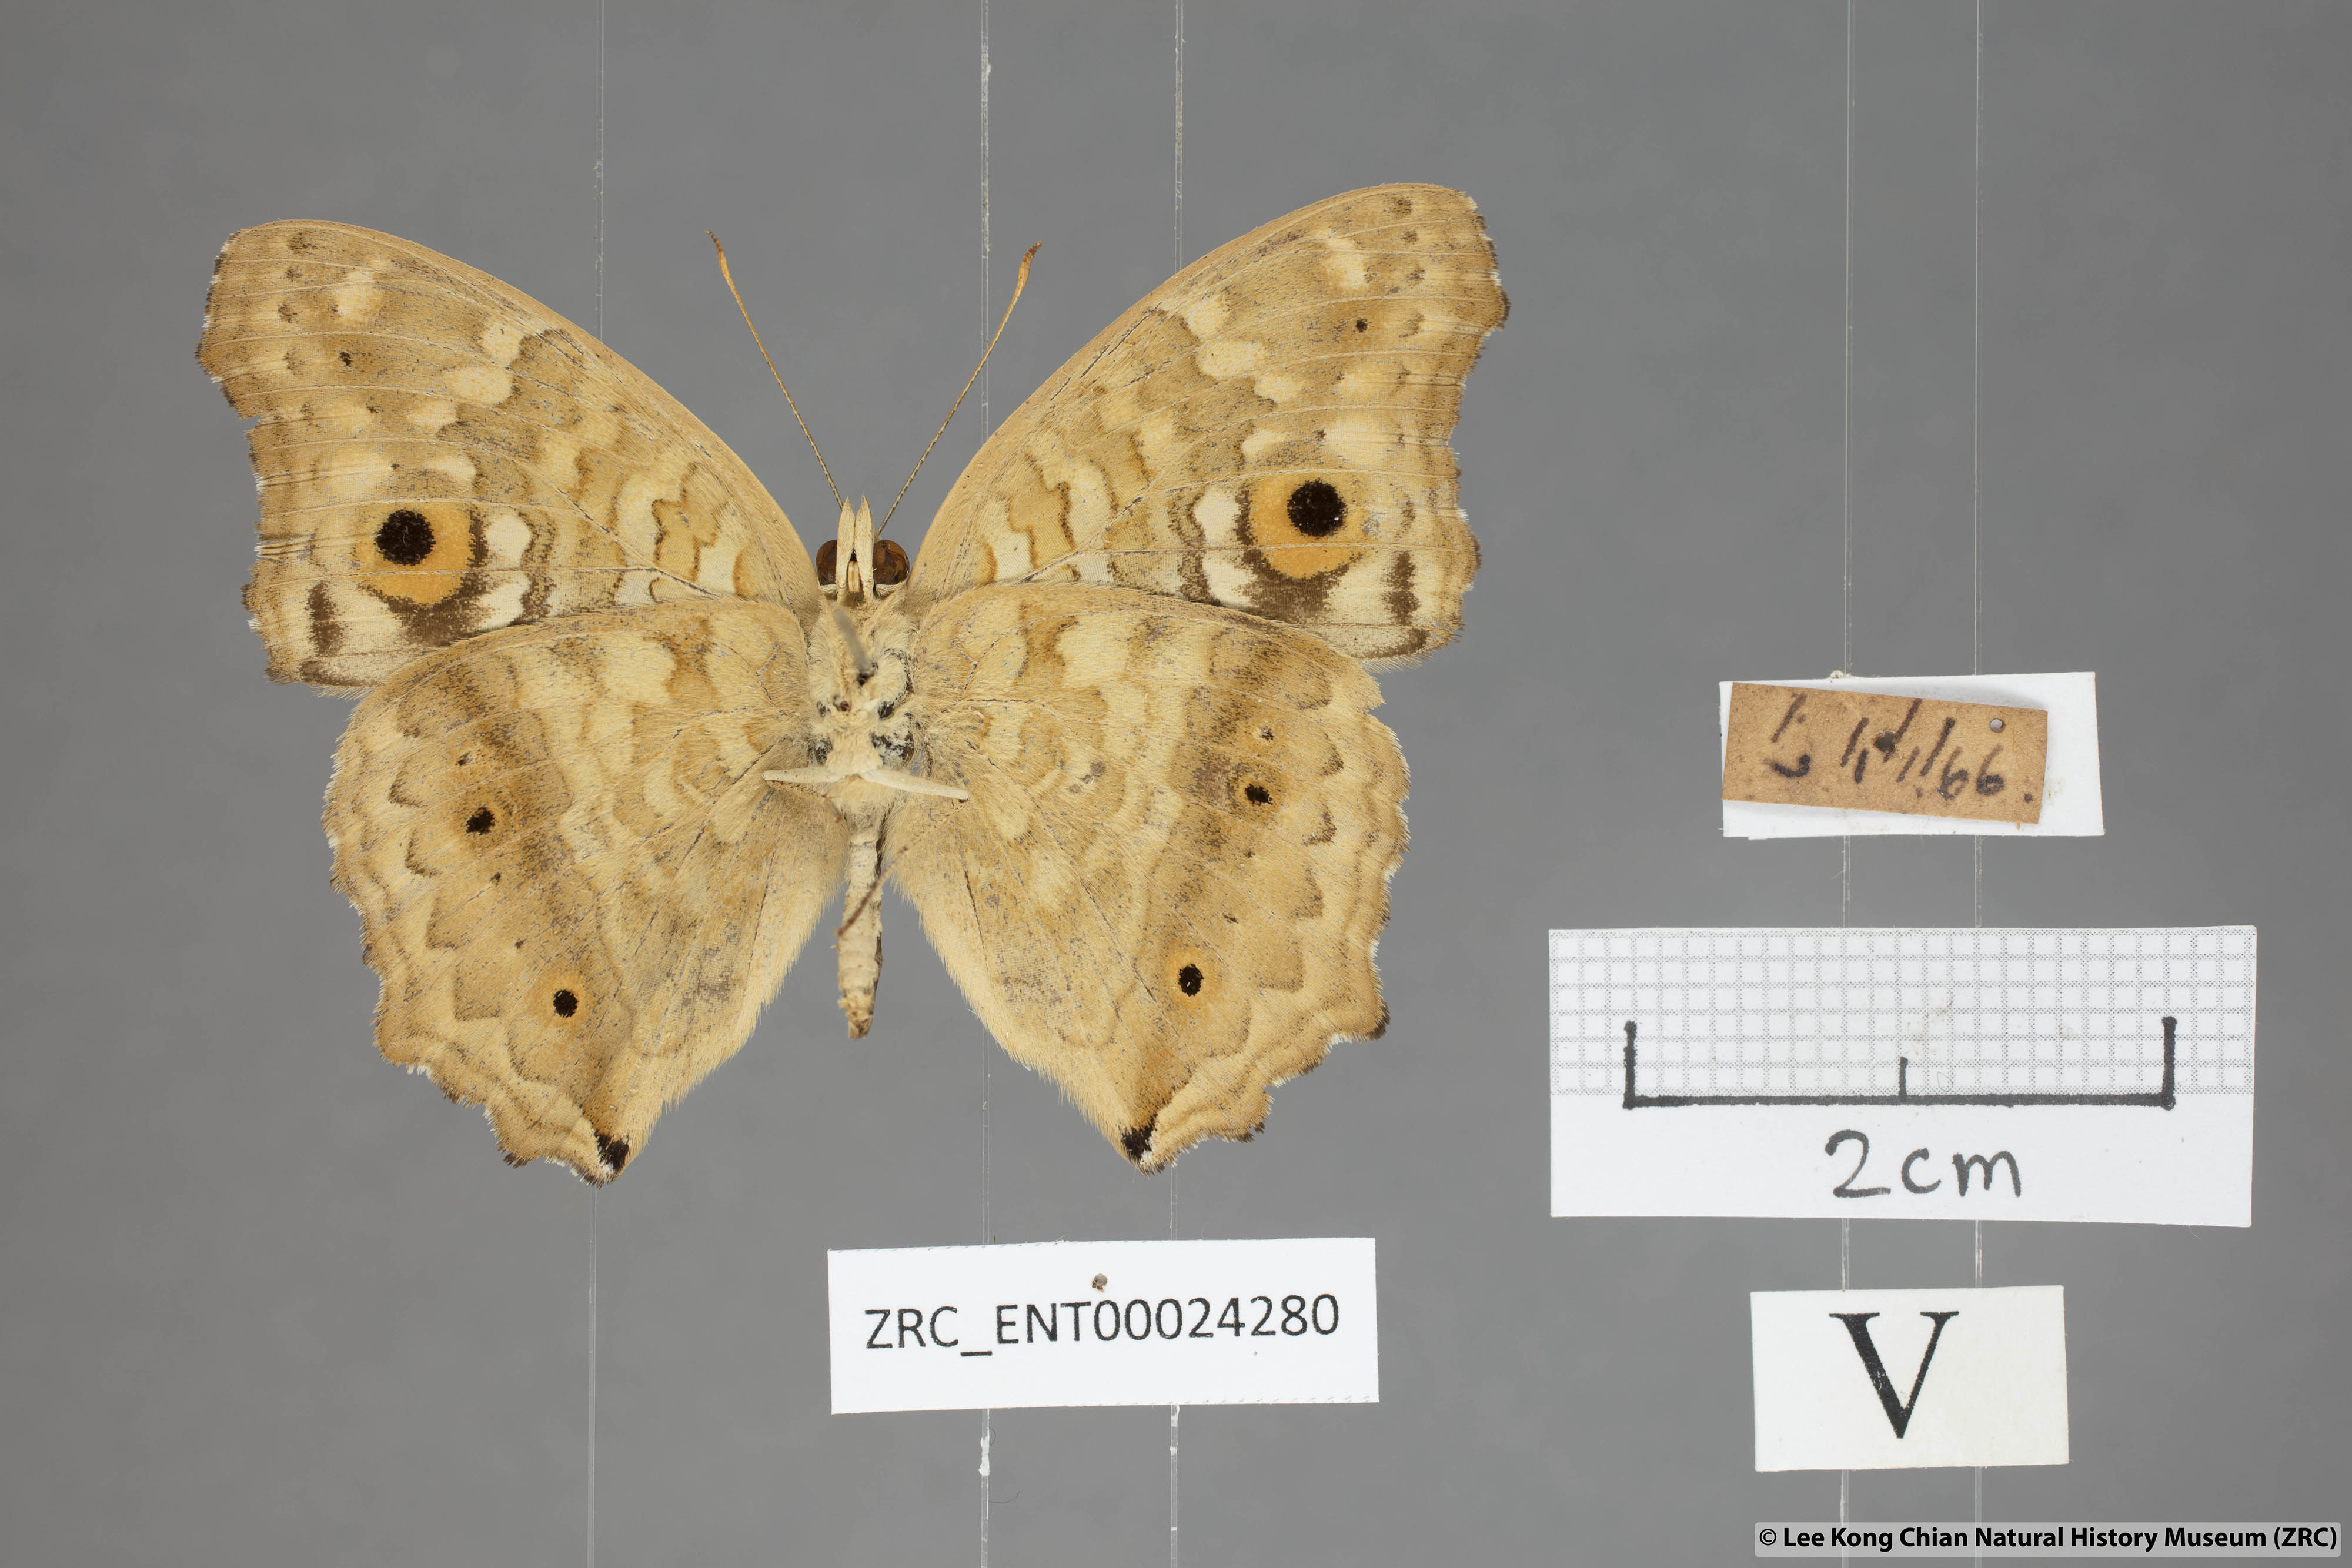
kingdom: Animalia
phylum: Arthropoda
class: Insecta
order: Lepidoptera
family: Nymphalidae
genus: Junonia
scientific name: Junonia lemonias
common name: Lemon pansy
